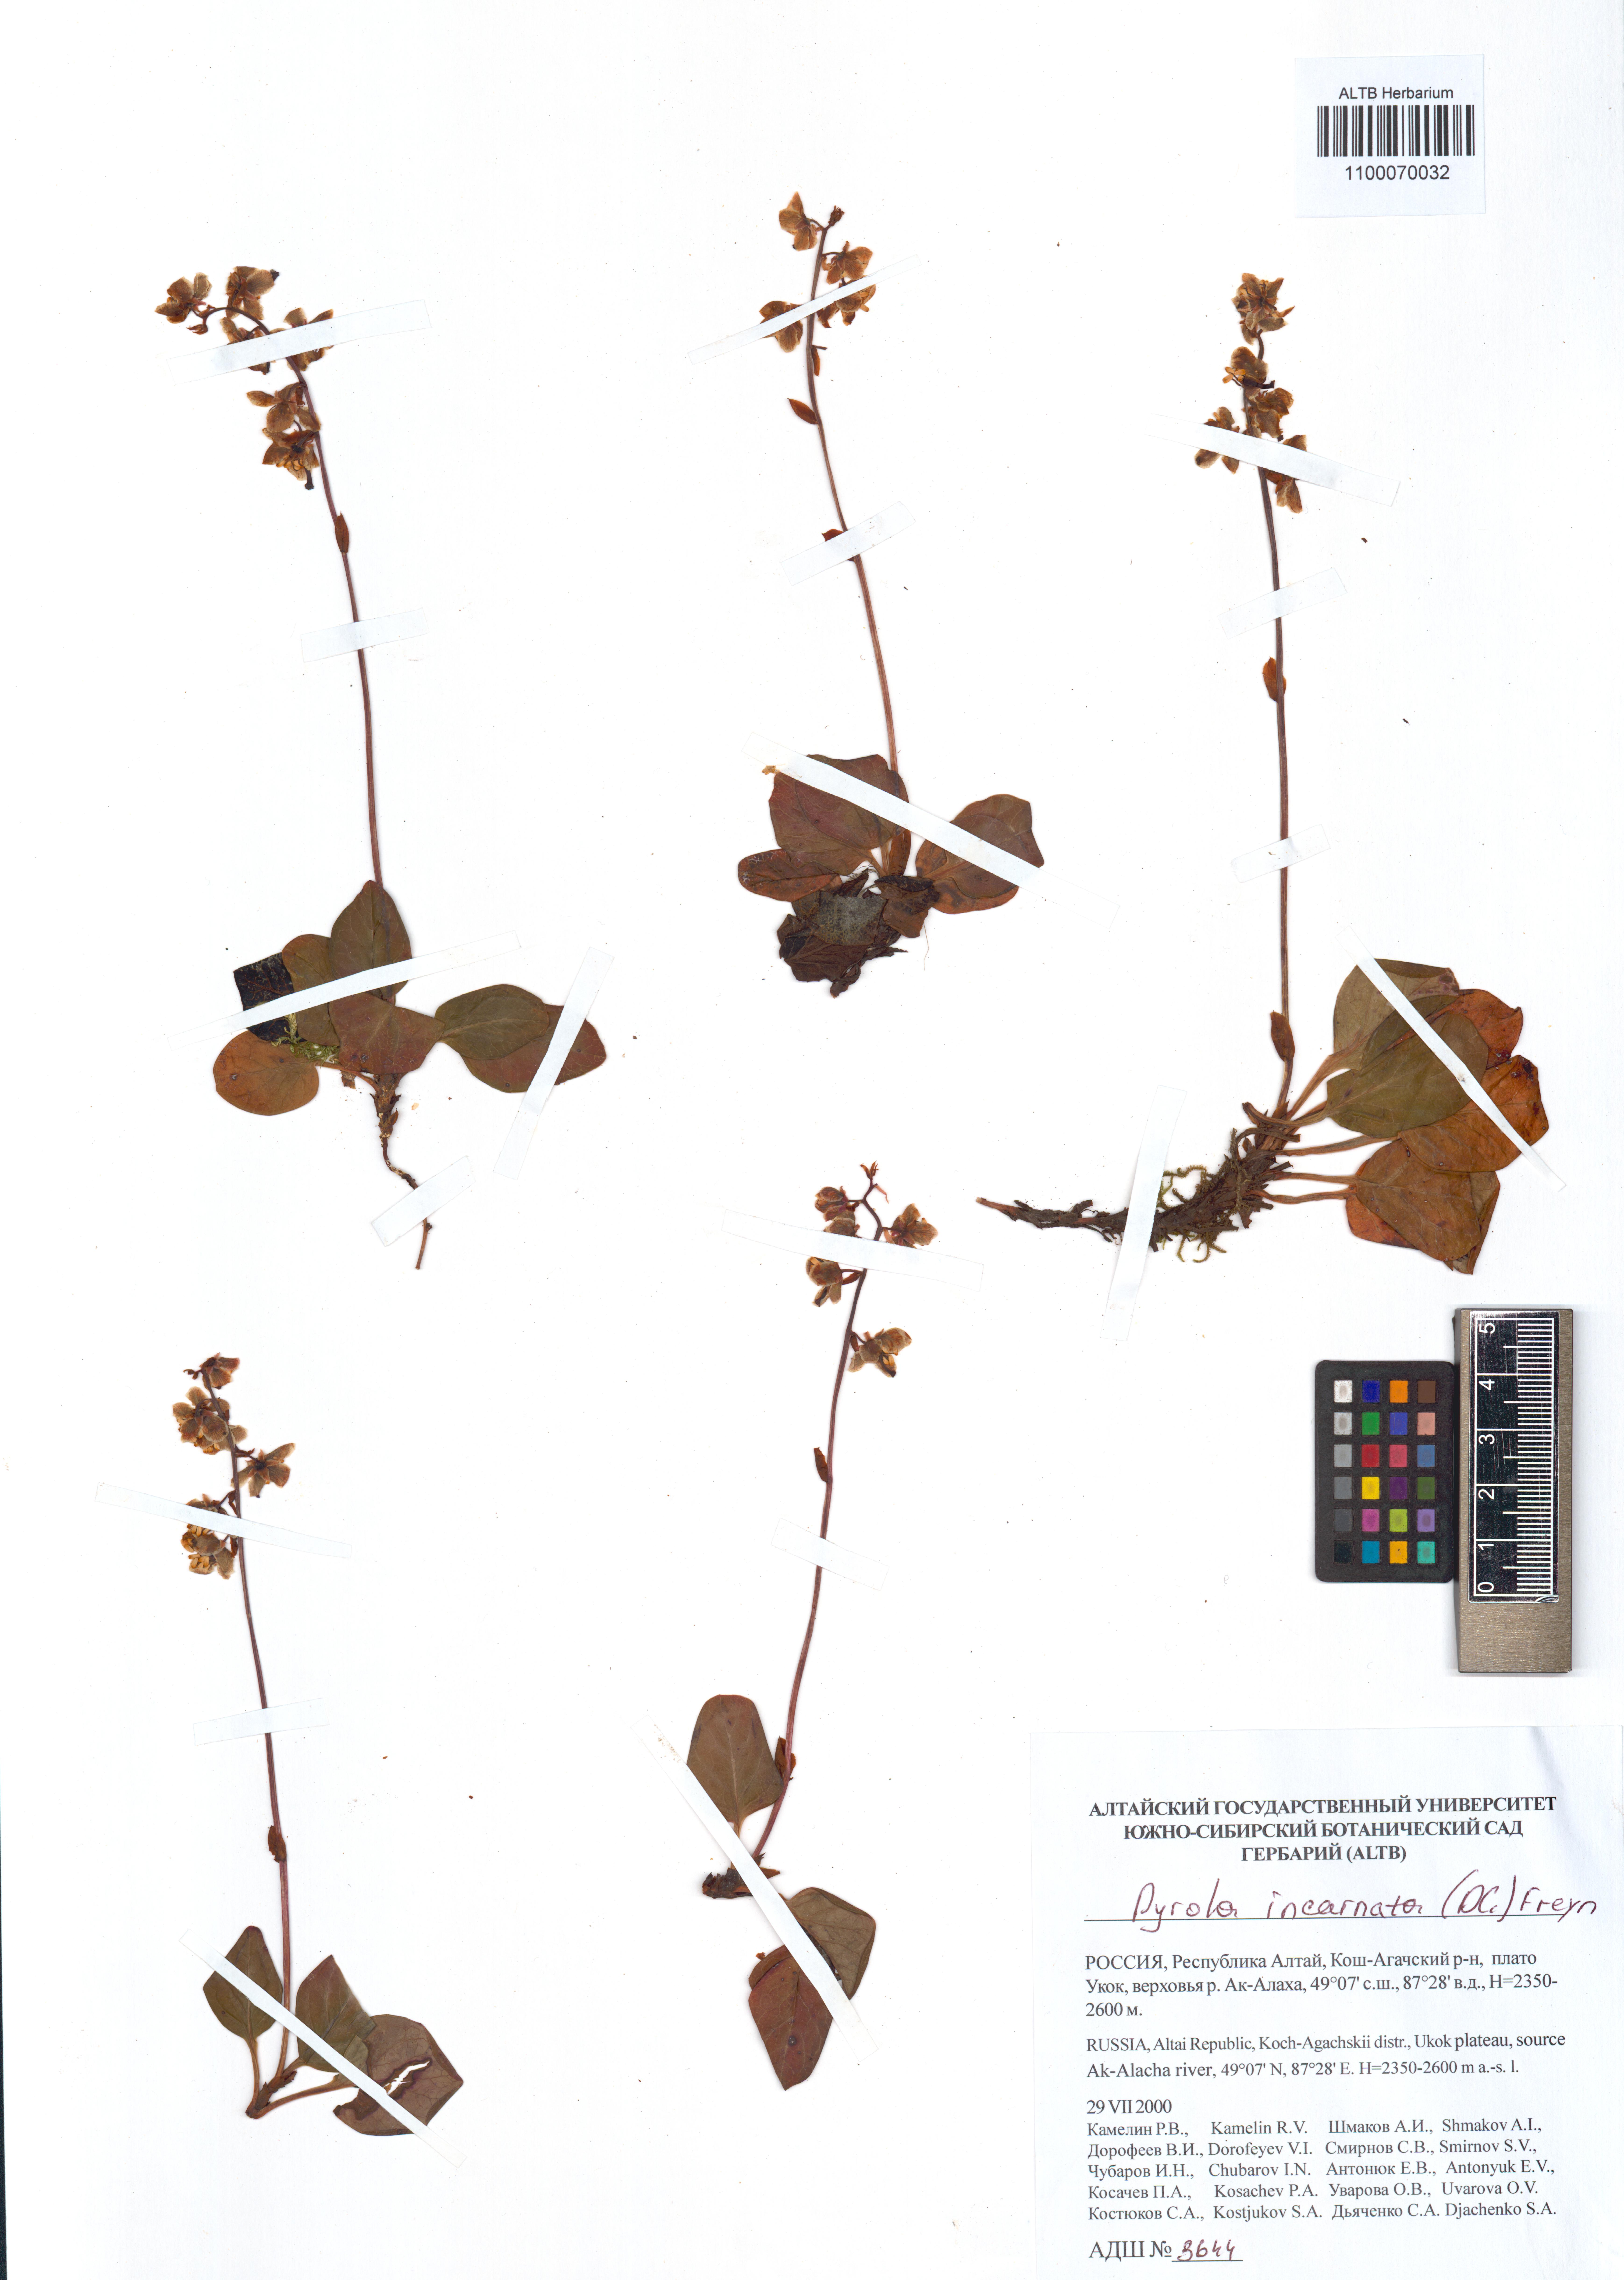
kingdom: Plantae
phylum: Tracheophyta
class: Magnoliopsida
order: Ericales
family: Ericaceae
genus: Pyrola
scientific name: Pyrola asarifolia
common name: Bog wintergreen
